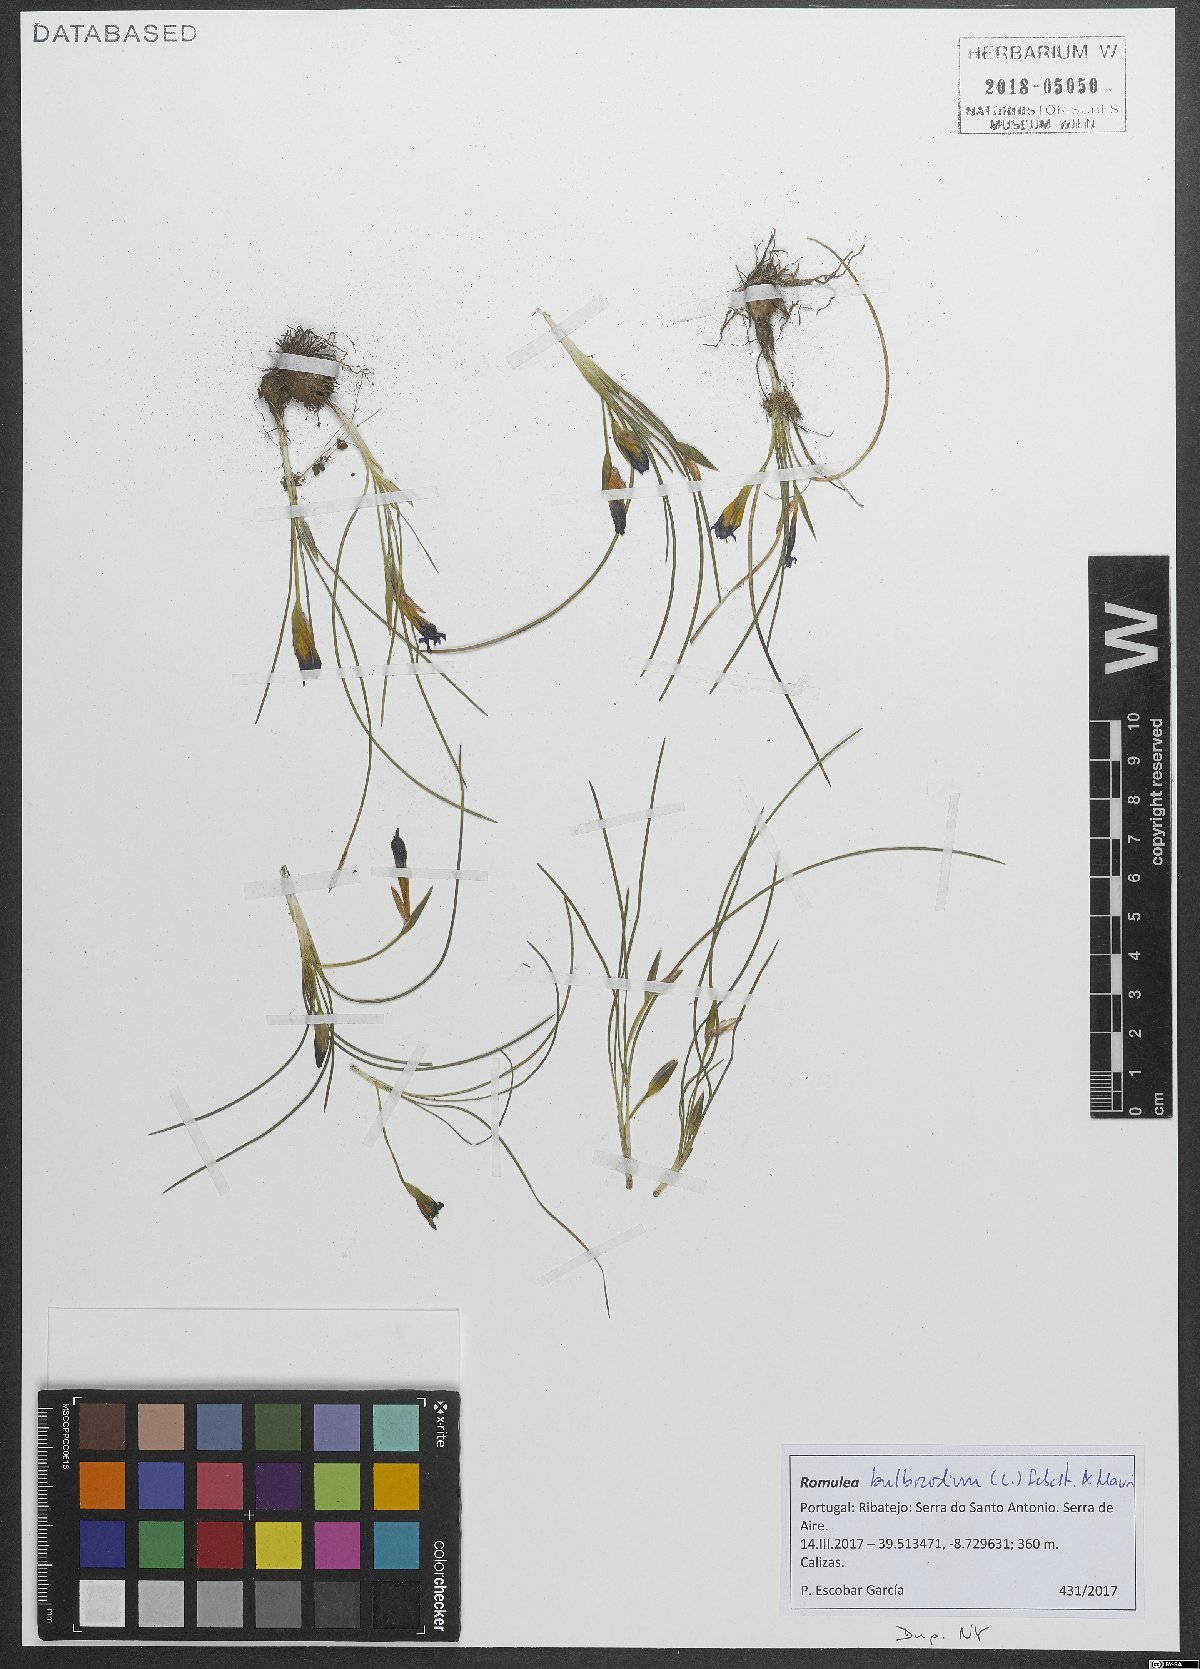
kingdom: Plantae
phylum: Tracheophyta
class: Liliopsida
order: Asparagales
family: Iridaceae
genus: Romulea
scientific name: Romulea bulbocodium
